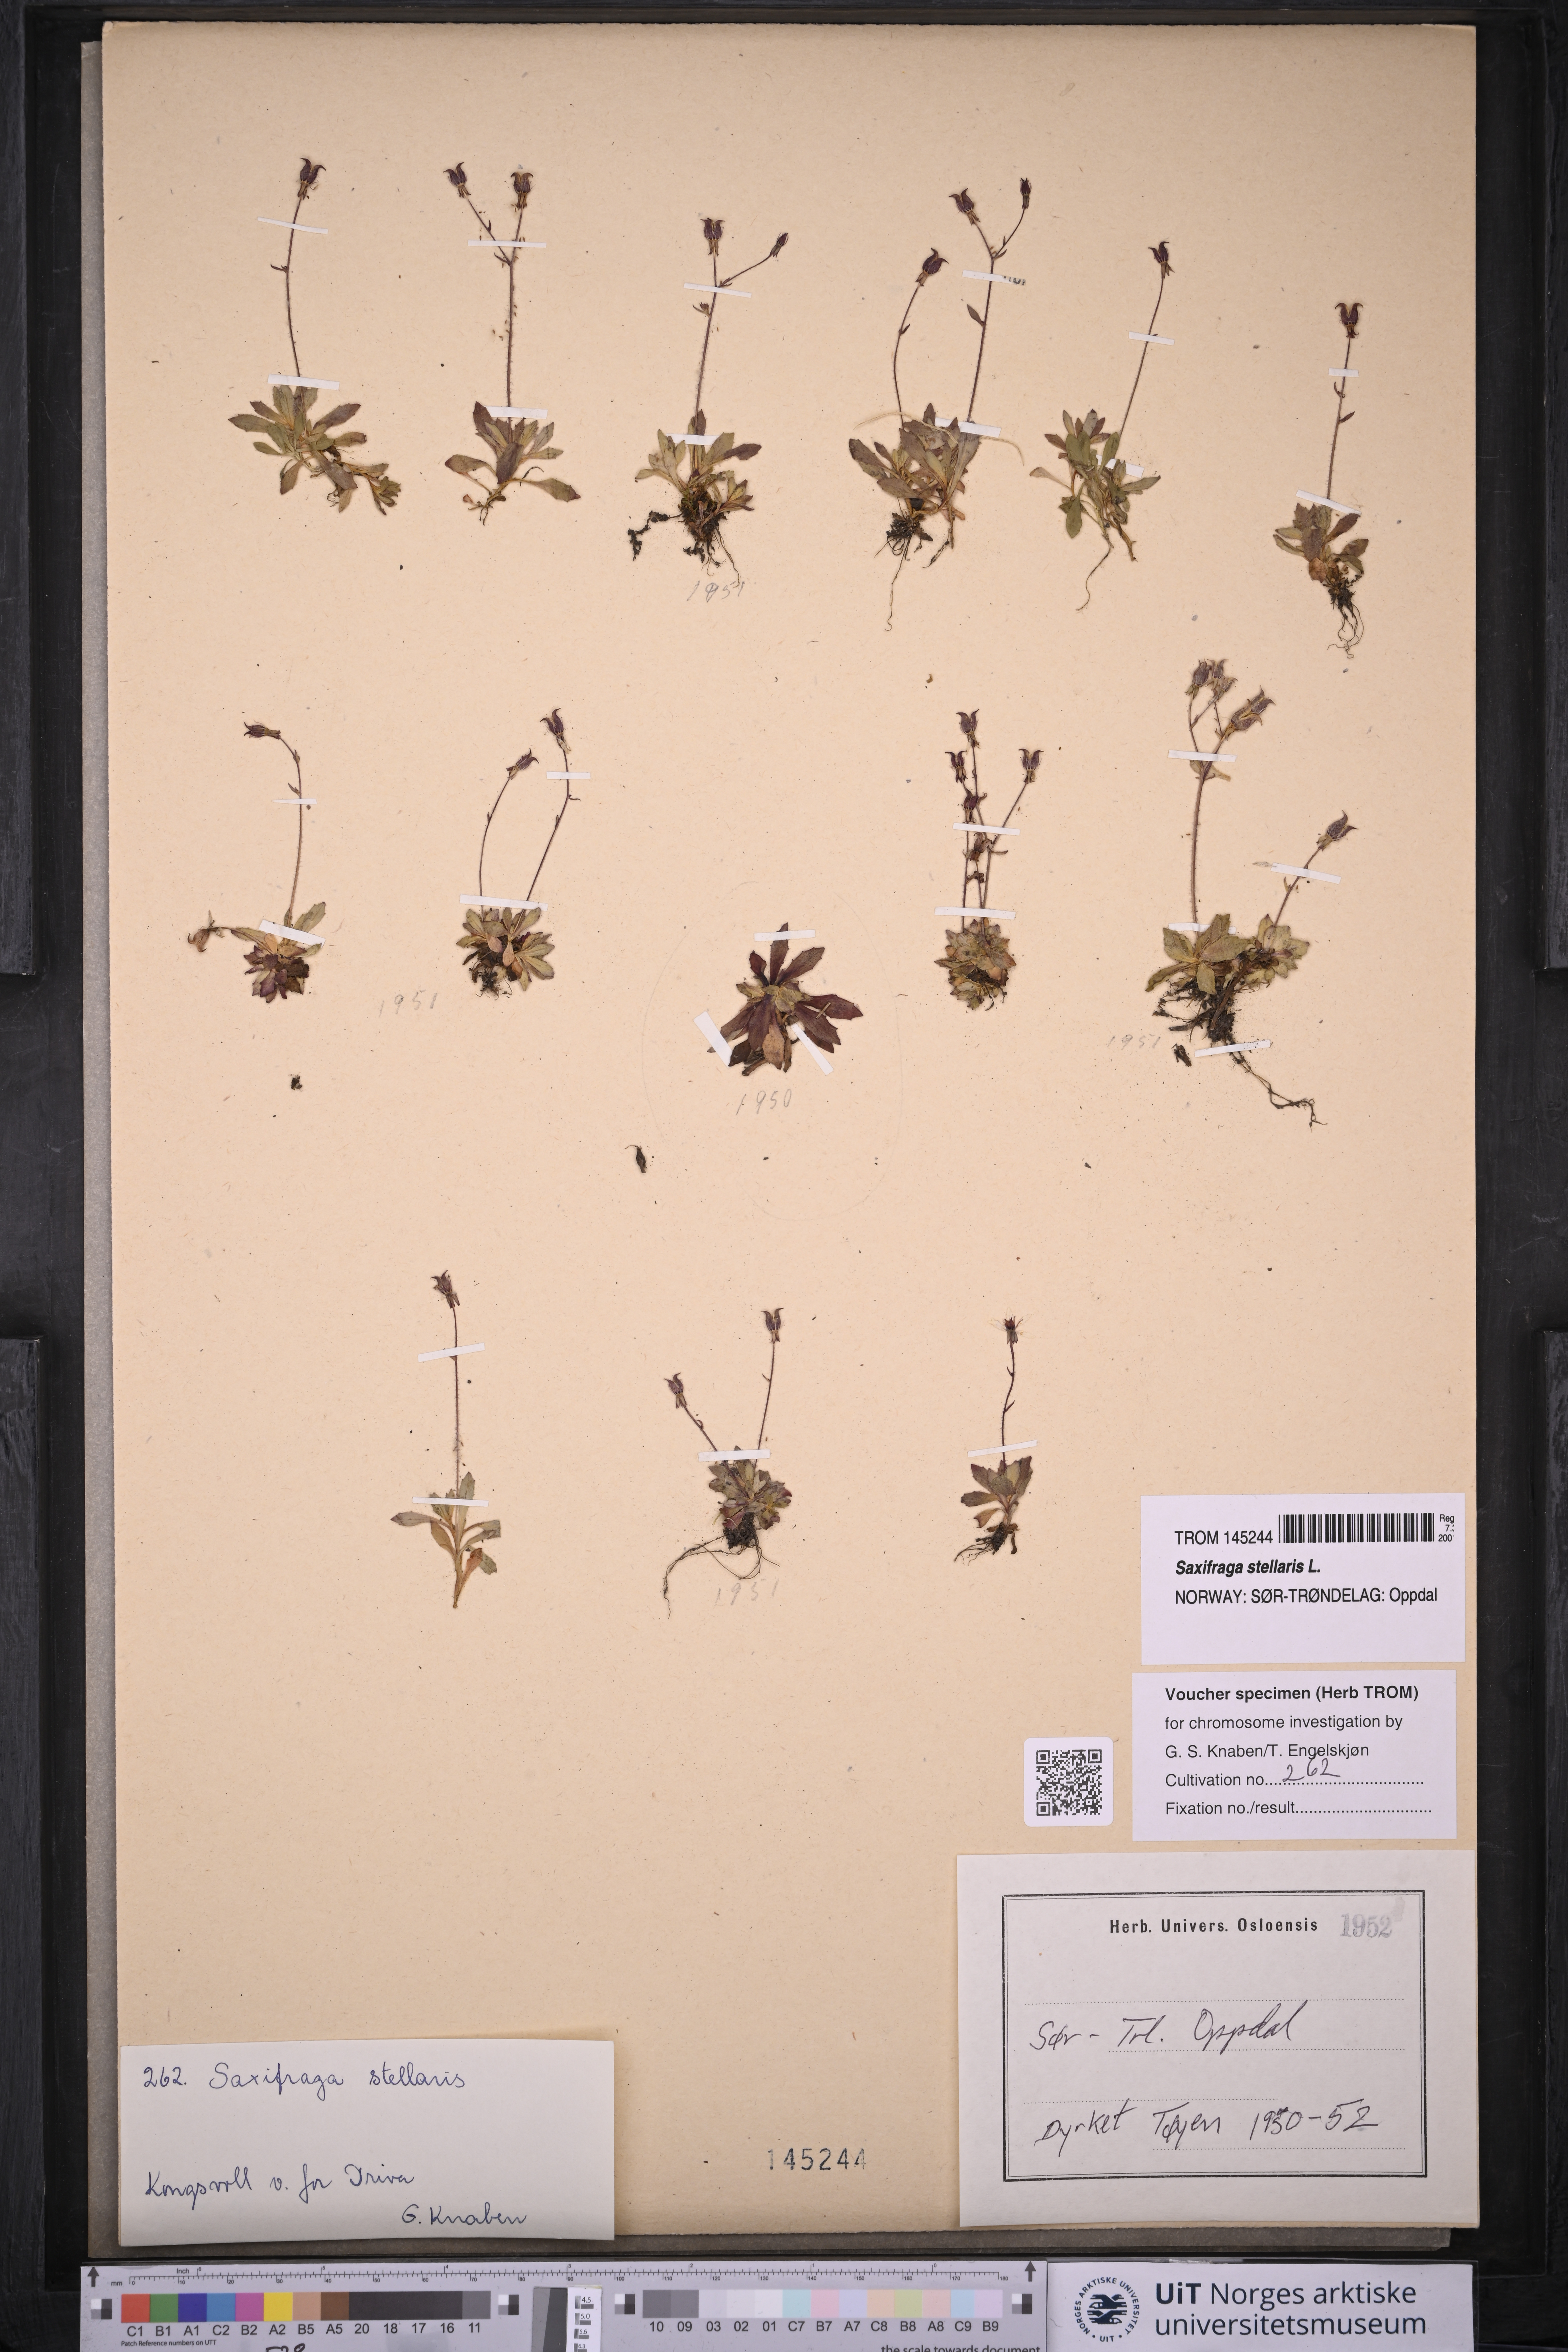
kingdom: Plantae
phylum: Tracheophyta
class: Magnoliopsida
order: Saxifragales
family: Saxifragaceae
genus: Micranthes
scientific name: Micranthes stellaris
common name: Starry saxifrage
